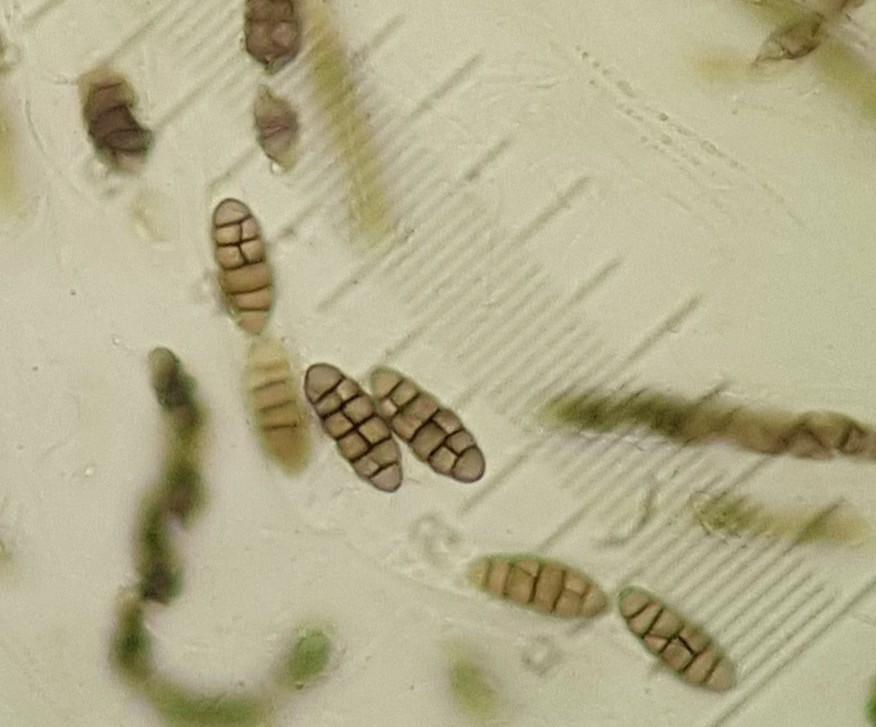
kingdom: Fungi
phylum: Ascomycota
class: Dothideomycetes
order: Pleosporales
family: Lophiostomataceae
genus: Lophiostoma
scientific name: Lophiostoma compressum
